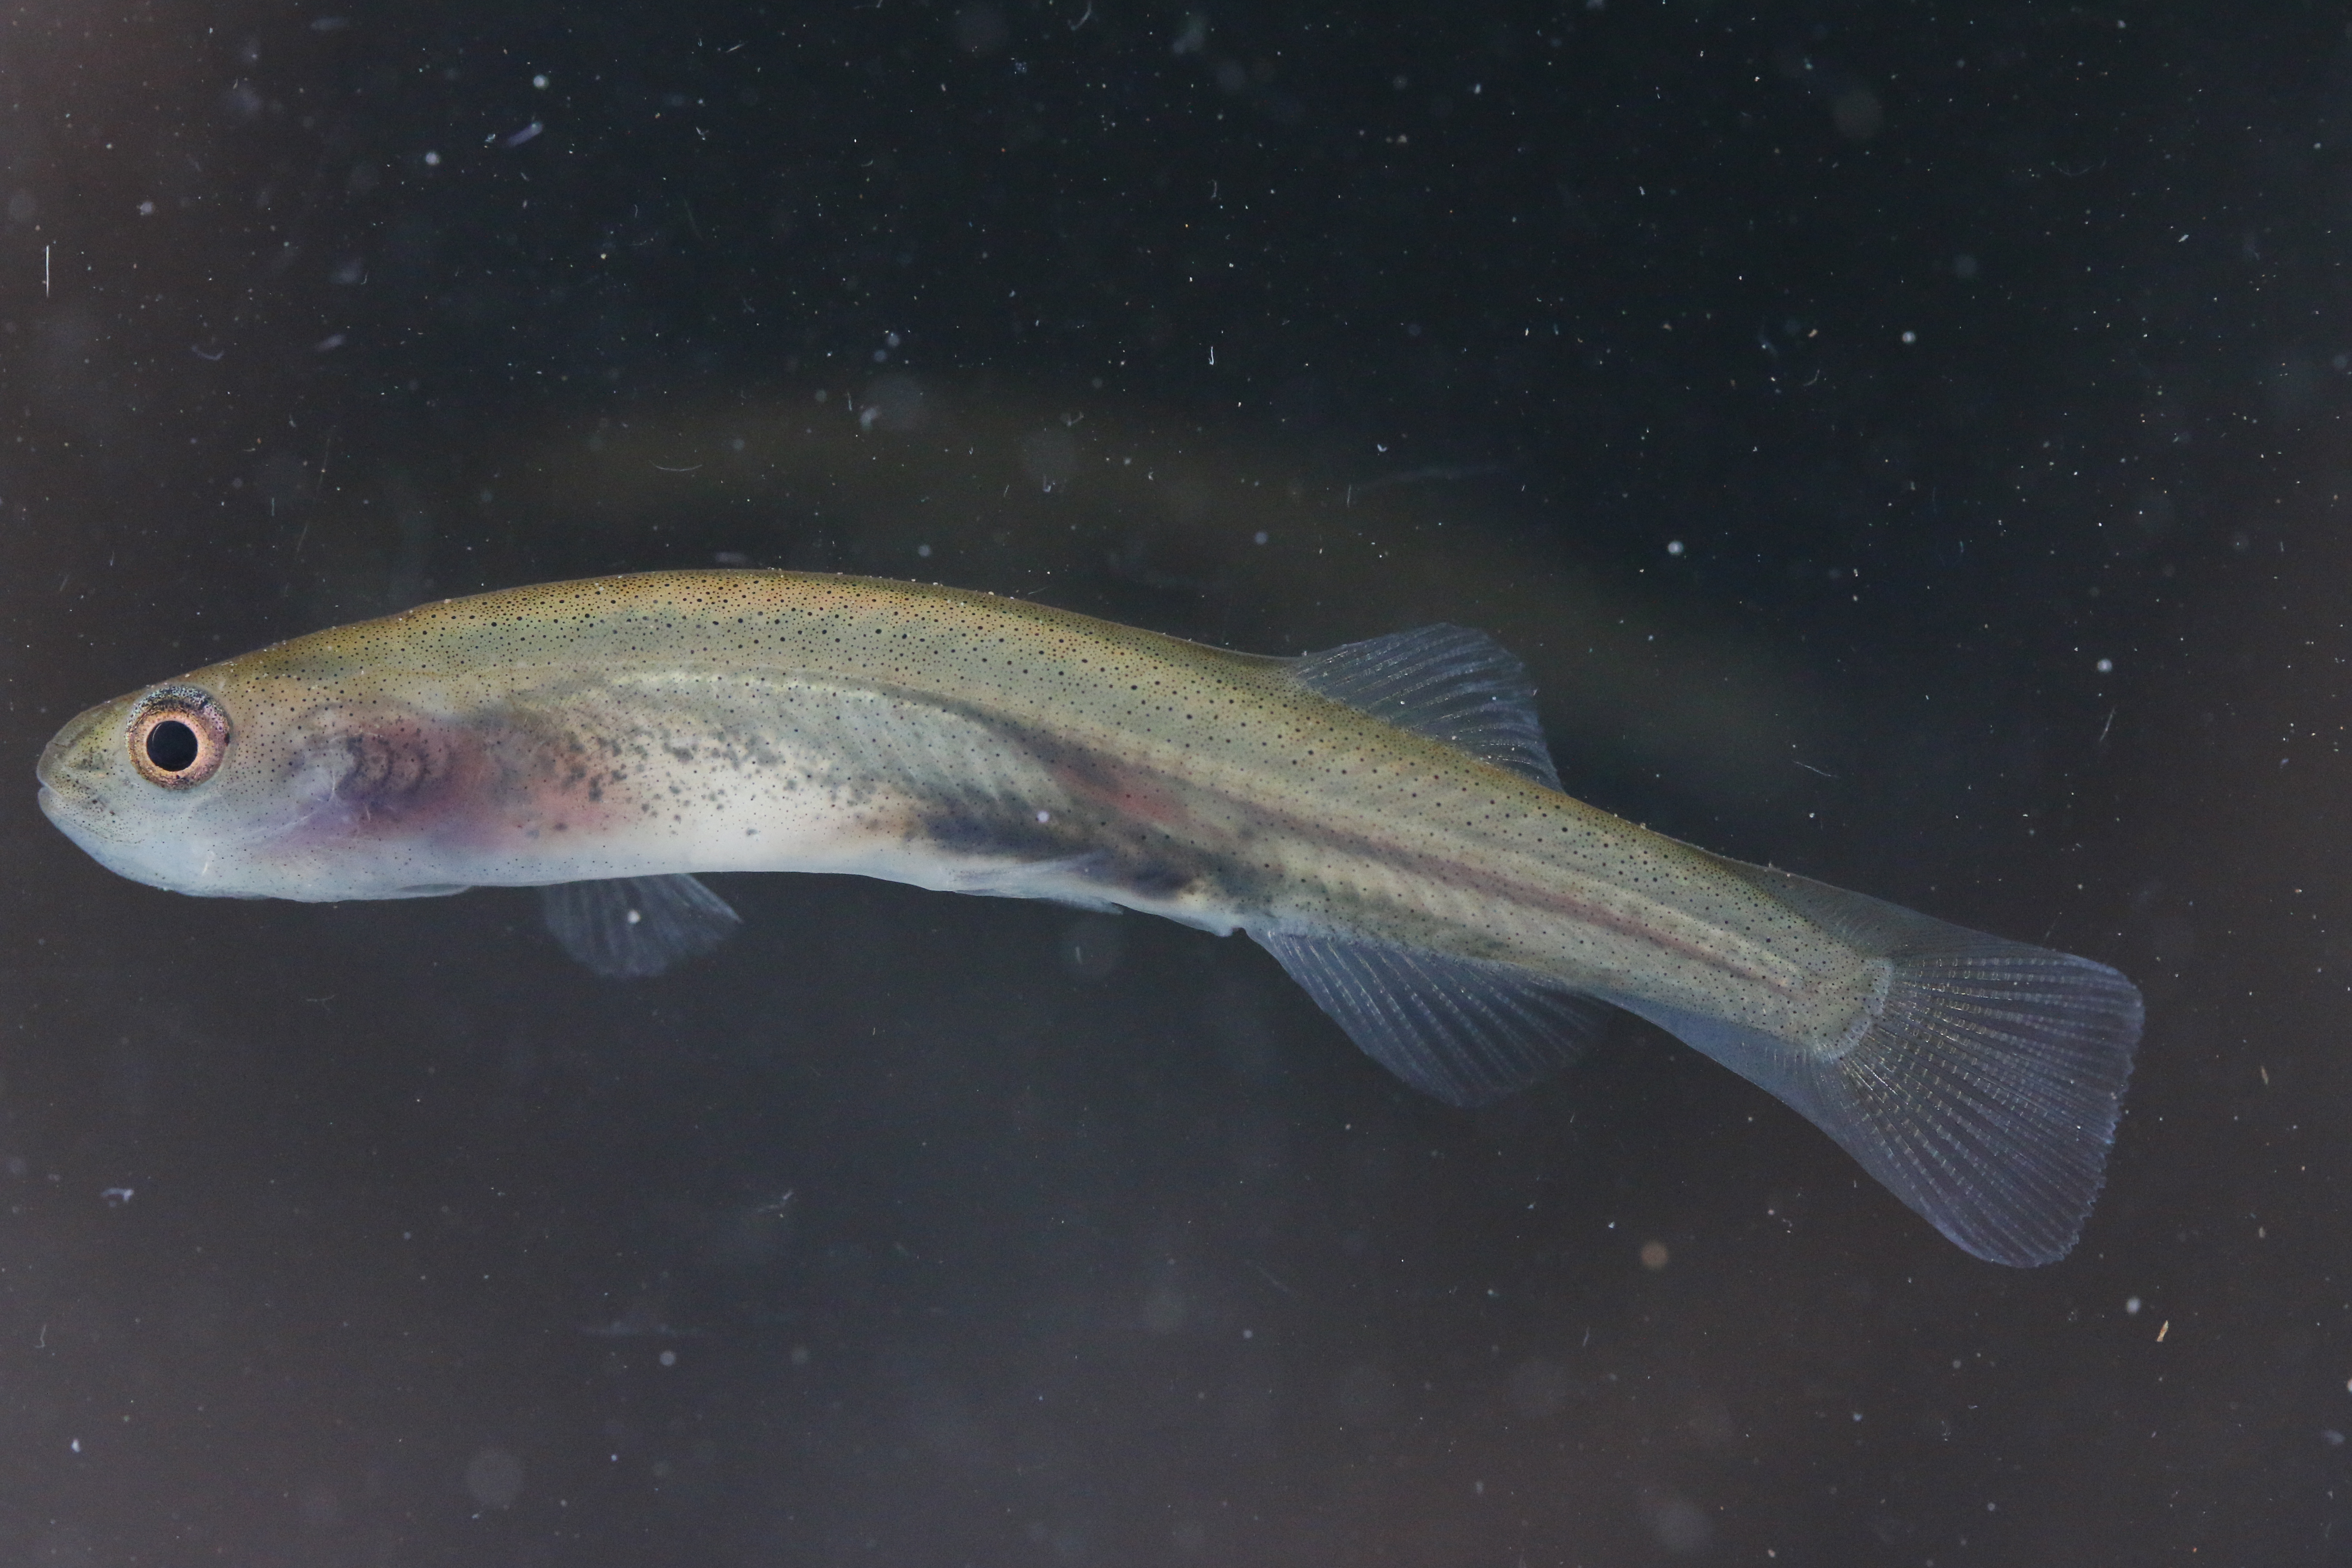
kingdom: Animalia
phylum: Chordata
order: Osmeriformes
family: Galaxiidae
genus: Galaxias
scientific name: Galaxias zebratus
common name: Cape galaxias
